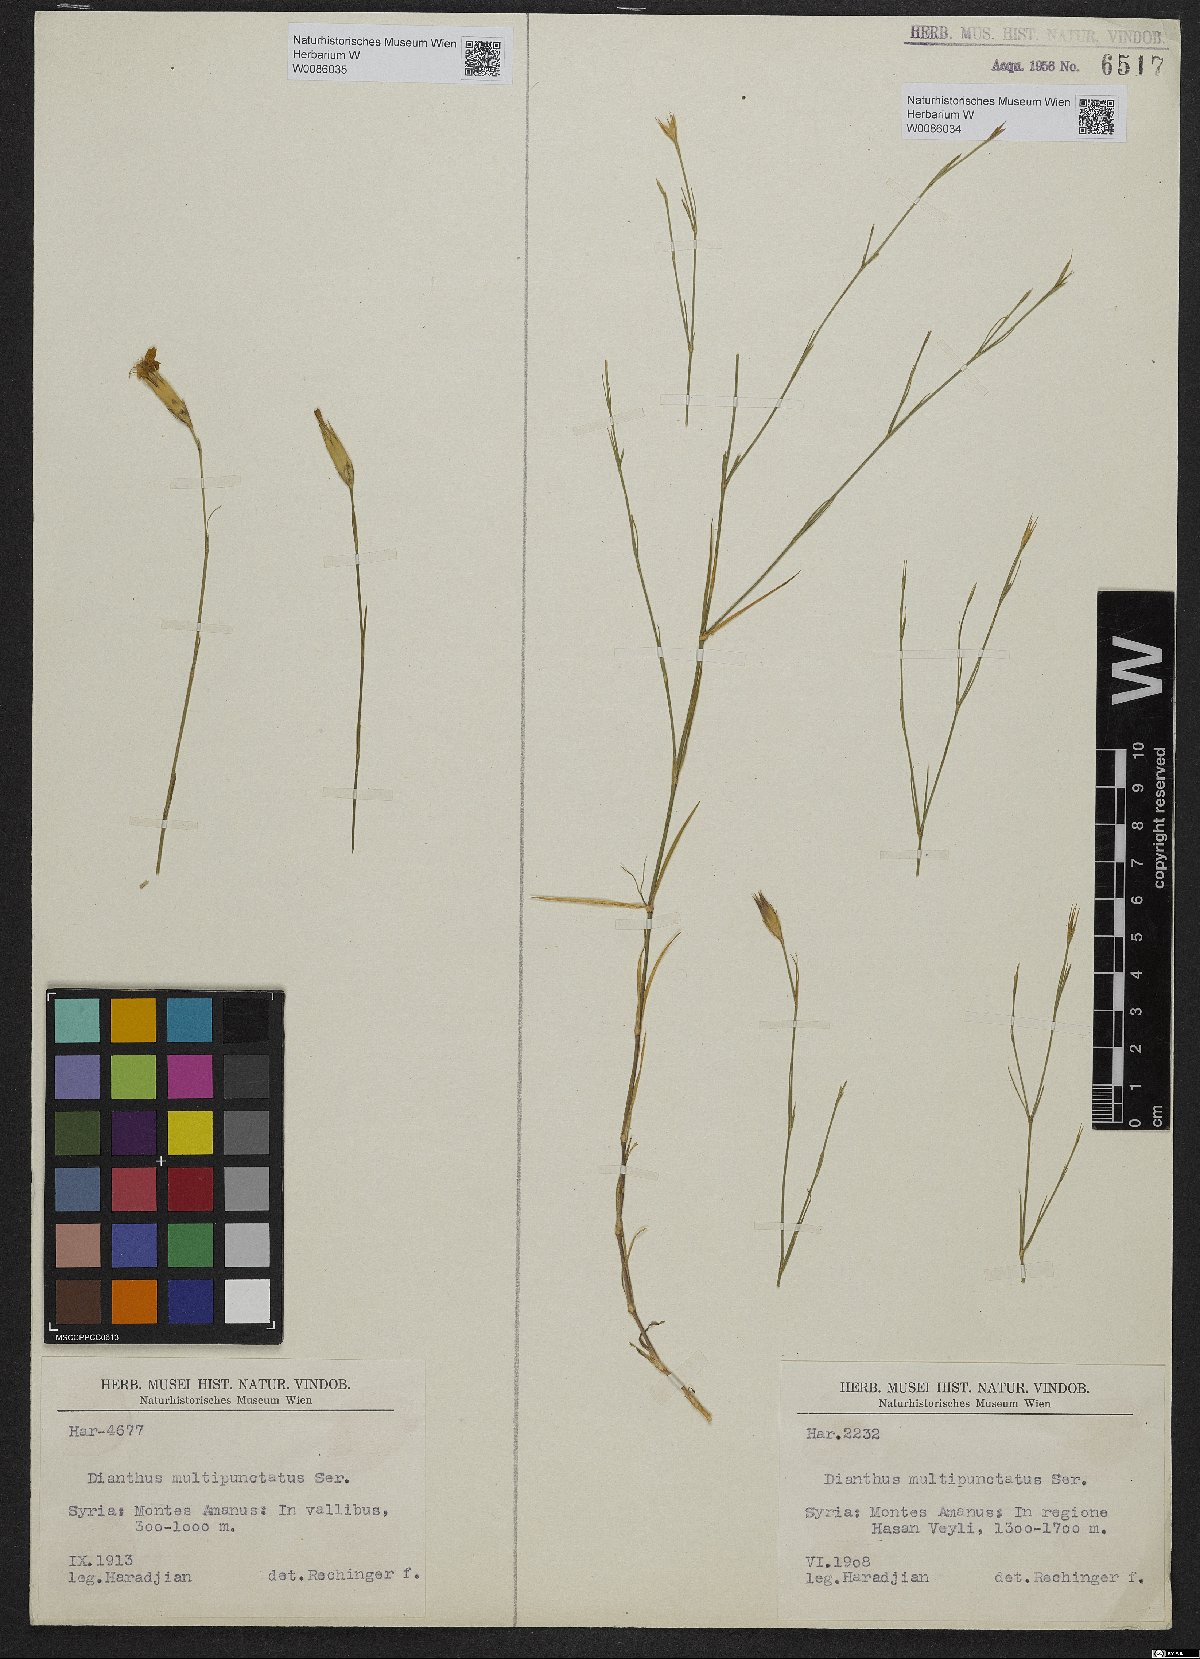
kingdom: Plantae
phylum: Tracheophyta
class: Magnoliopsida
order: Caryophyllales
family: Caryophyllaceae
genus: Dianthus
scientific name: Dianthus strictus
